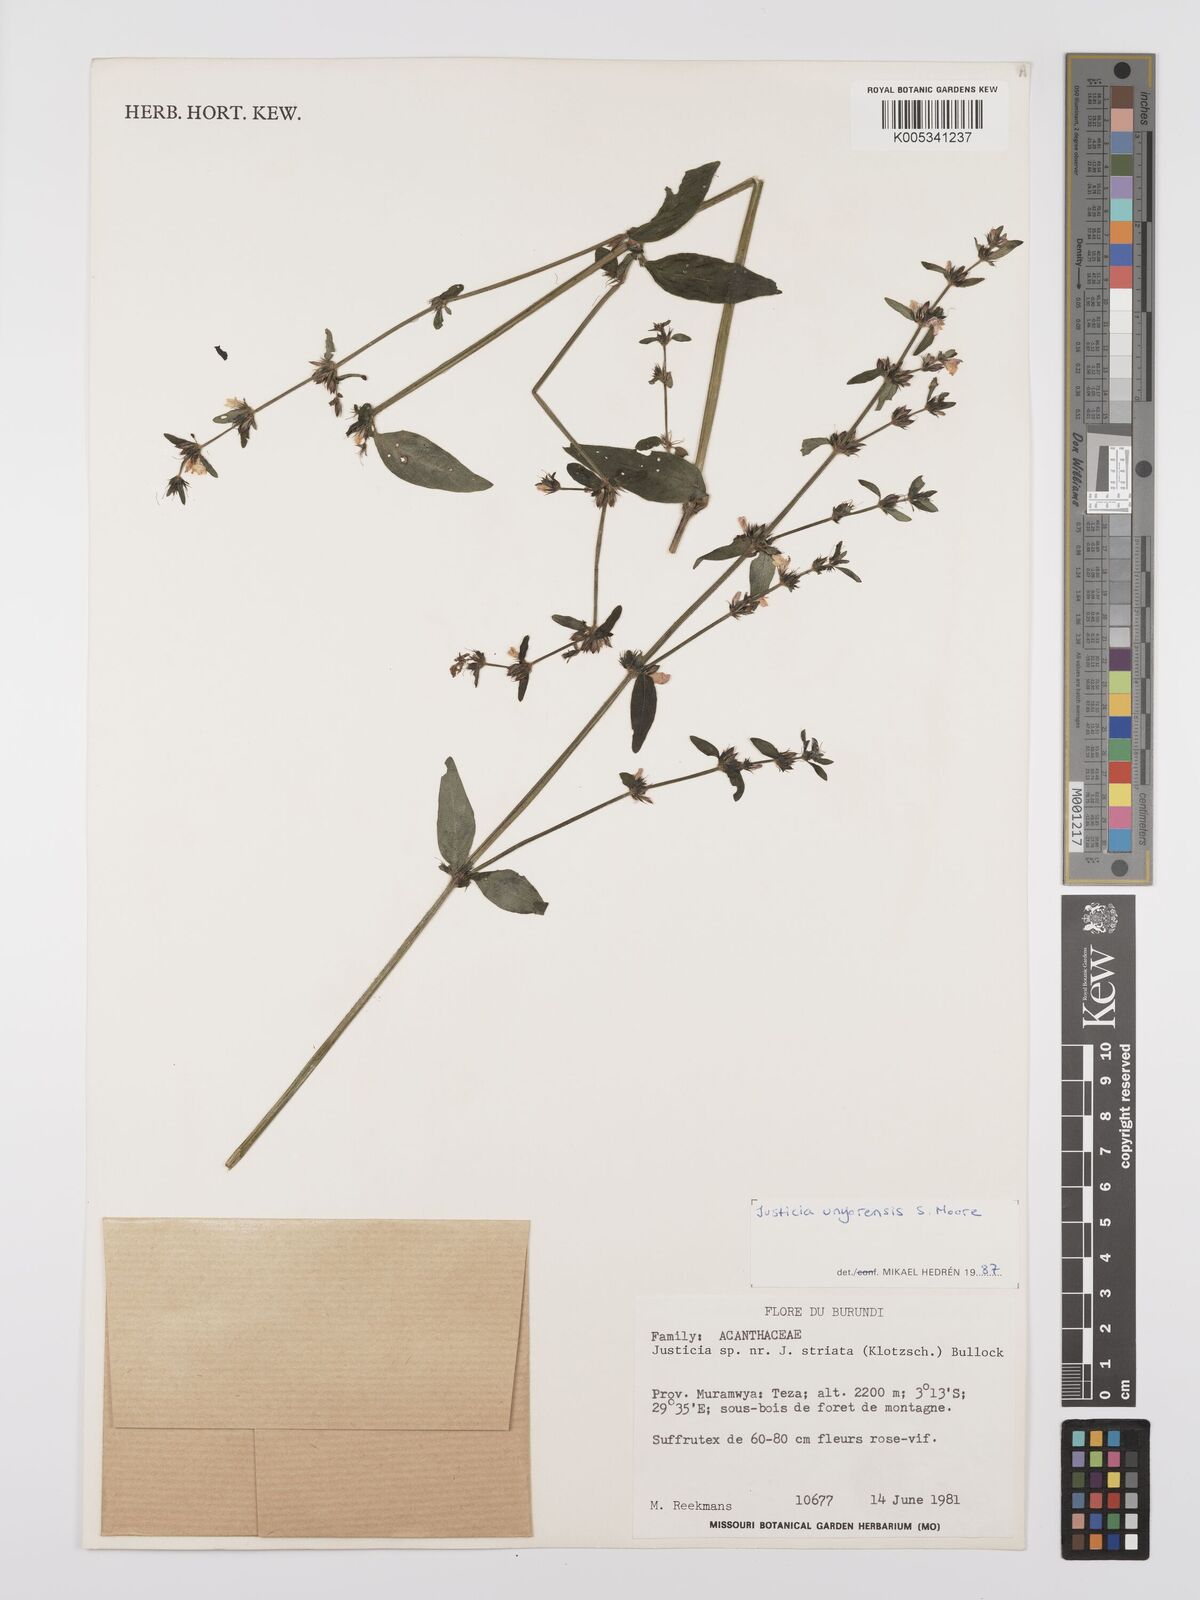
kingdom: Plantae
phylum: Tracheophyta
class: Magnoliopsida
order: Lamiales
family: Acanthaceae
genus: Justicia
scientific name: Justicia unyorensis
